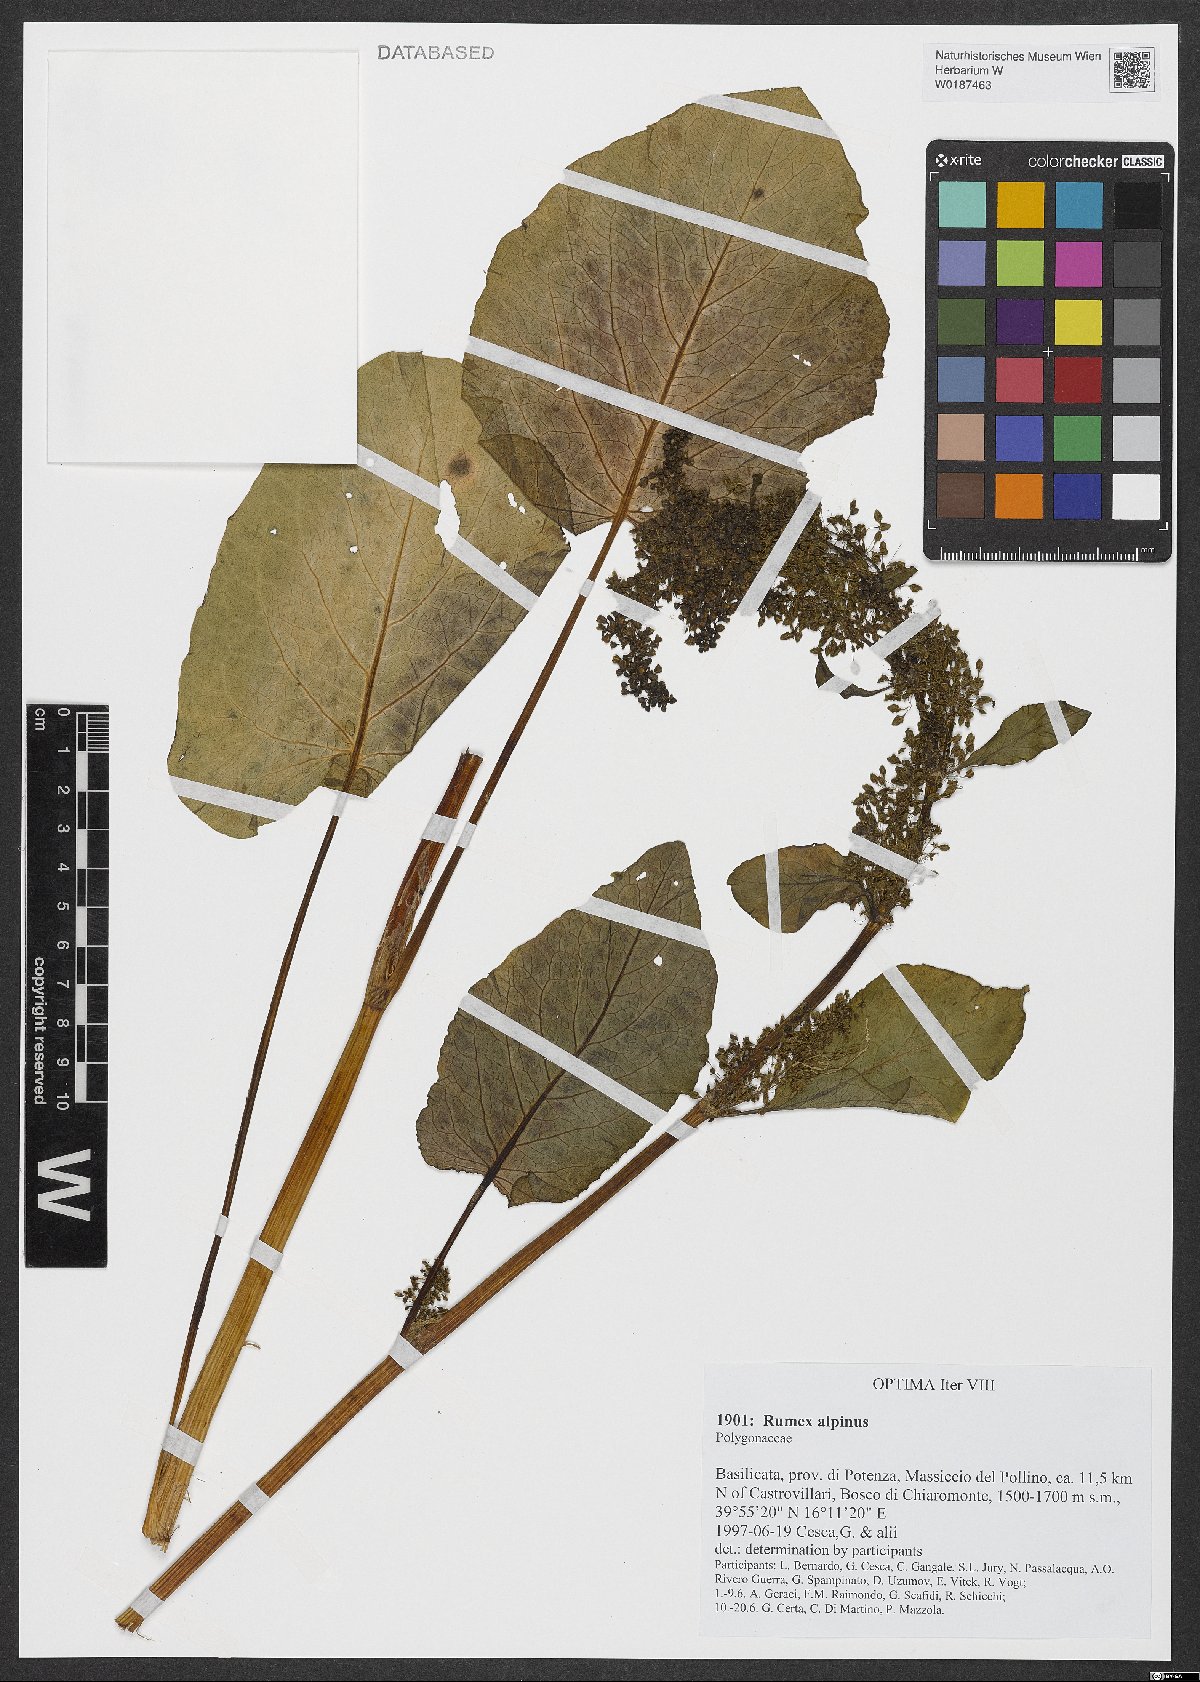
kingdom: Plantae
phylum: Tracheophyta
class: Magnoliopsida
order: Caryophyllales
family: Polygonaceae
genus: Rumex
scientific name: Rumex alpinus
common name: Alpine dock
